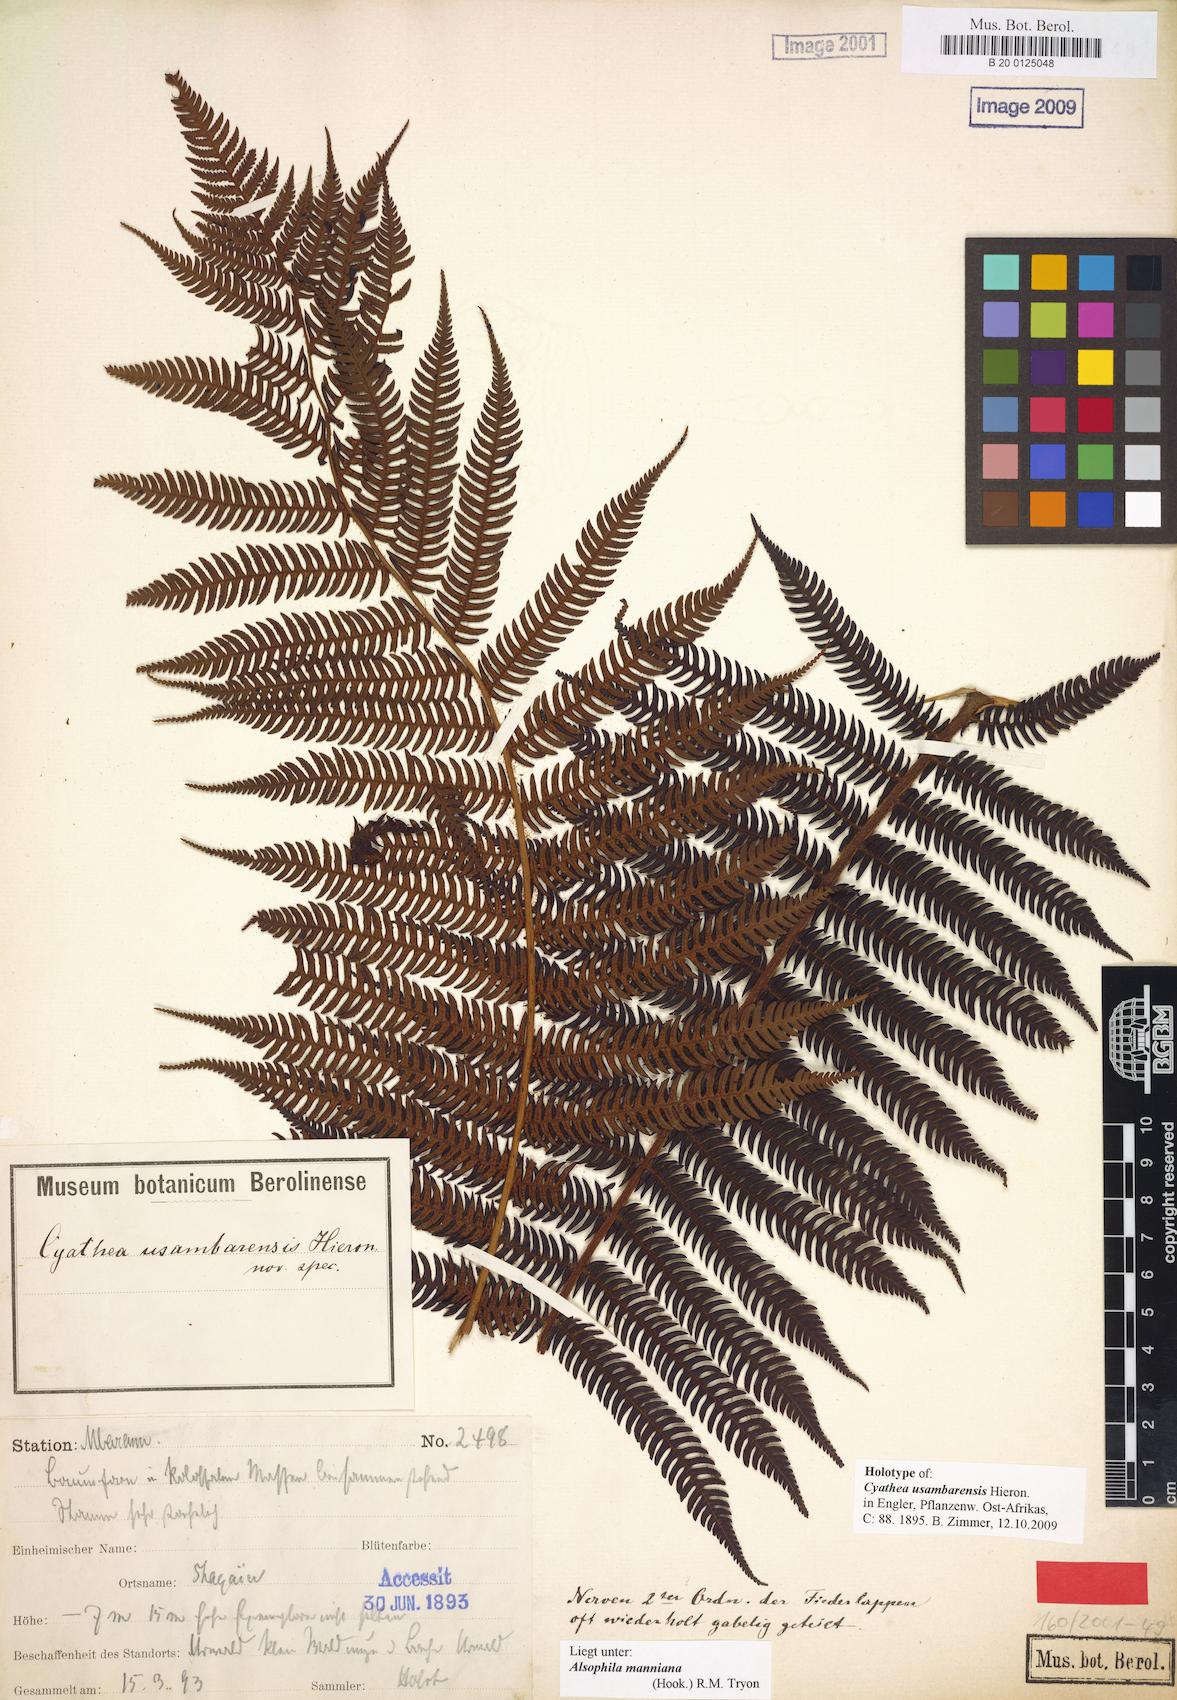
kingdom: Plantae
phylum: Tracheophyta
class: Polypodiopsida
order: Cyatheales
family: Cyatheaceae
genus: Alsophila
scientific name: Alsophila manniana
